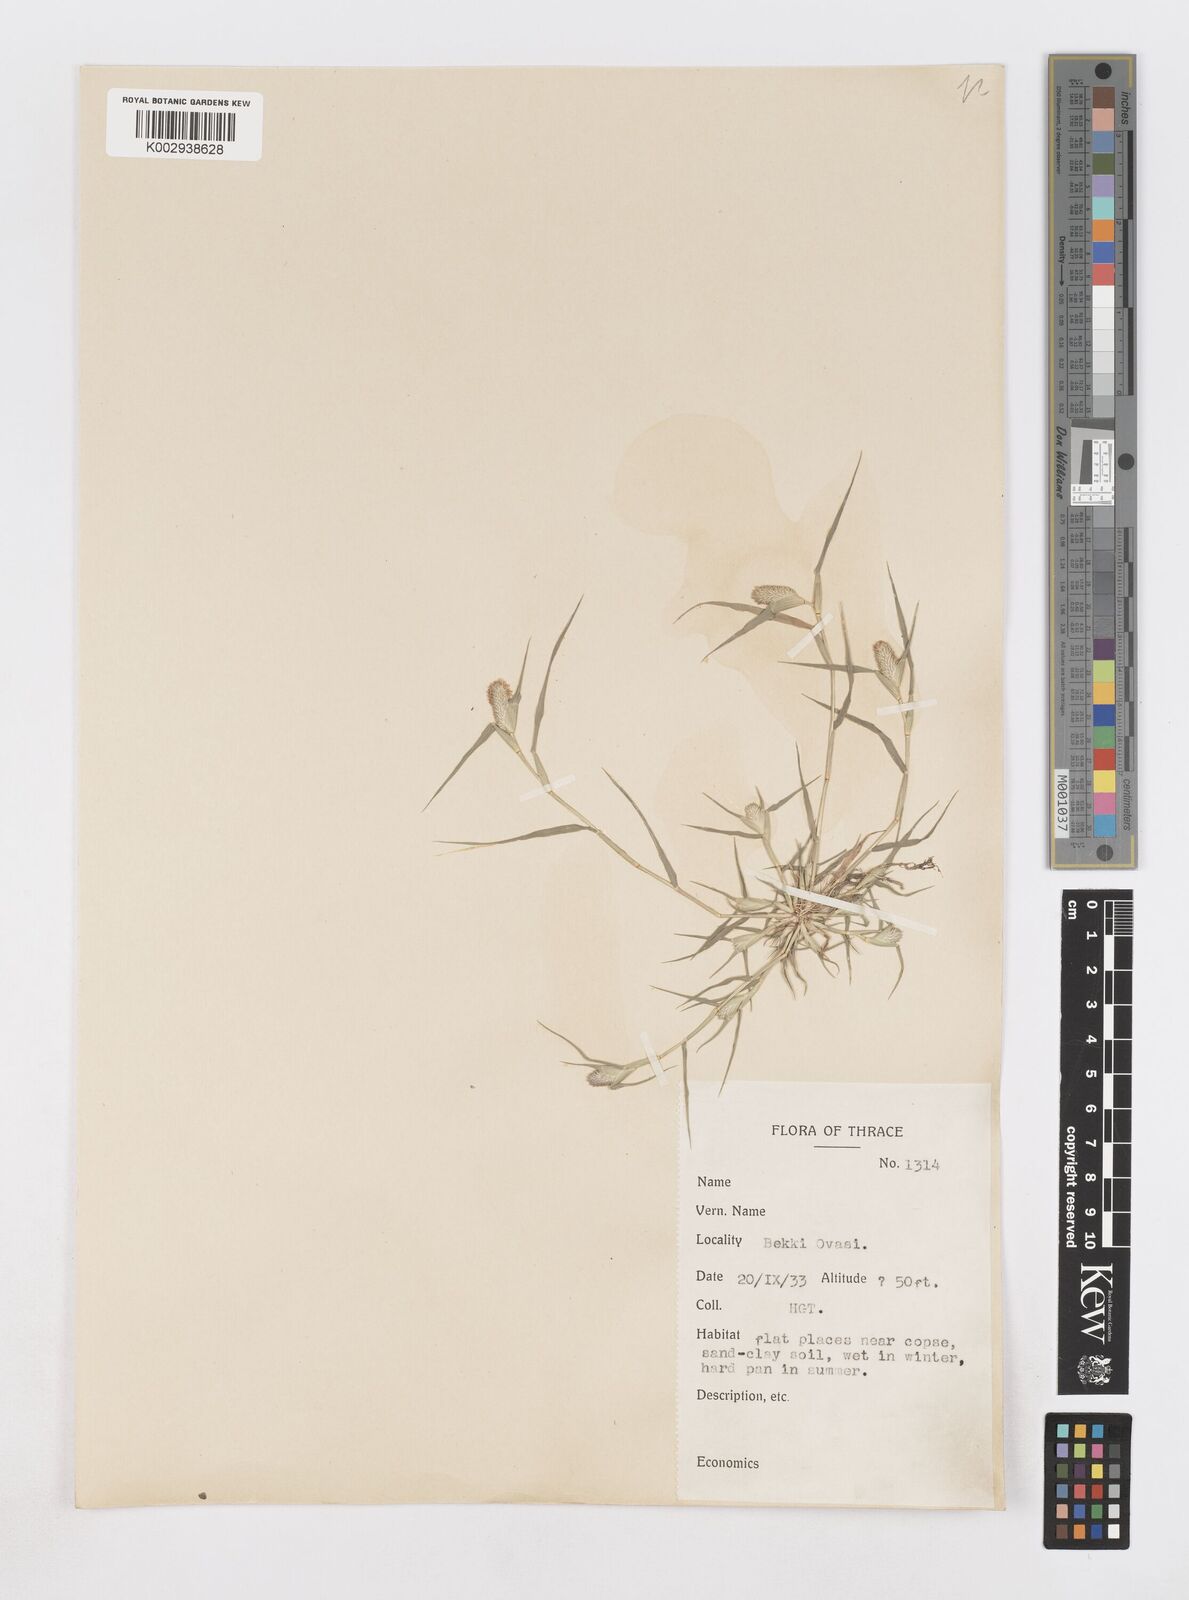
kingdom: Plantae
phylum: Tracheophyta
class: Liliopsida
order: Poales
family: Poaceae
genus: Sporobolus
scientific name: Sporobolus schoenoides
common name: Rush-like timothy
